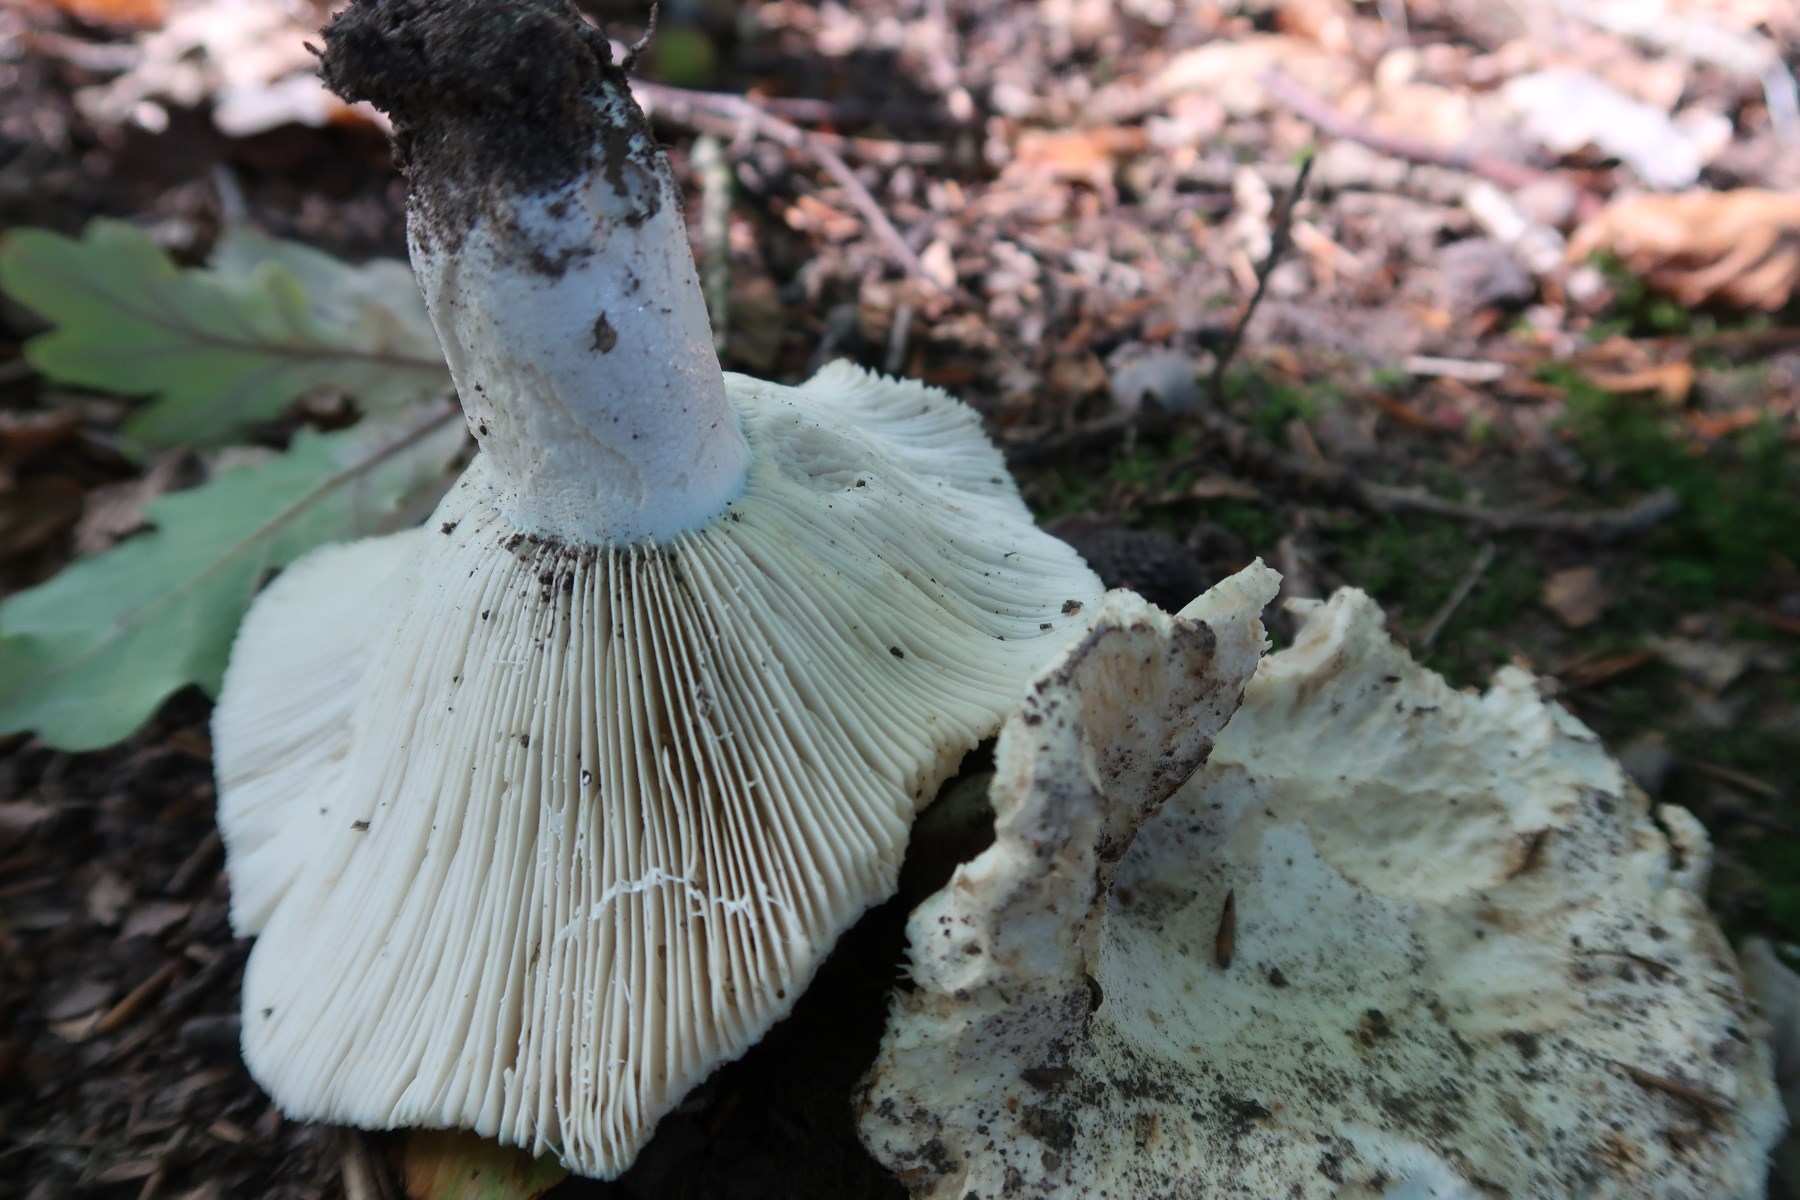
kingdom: Fungi
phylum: Basidiomycota
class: Agaricomycetes
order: Russulales
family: Russulaceae
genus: Russula
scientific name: Russula chloroides
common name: grønhalset tragt-skørhat
